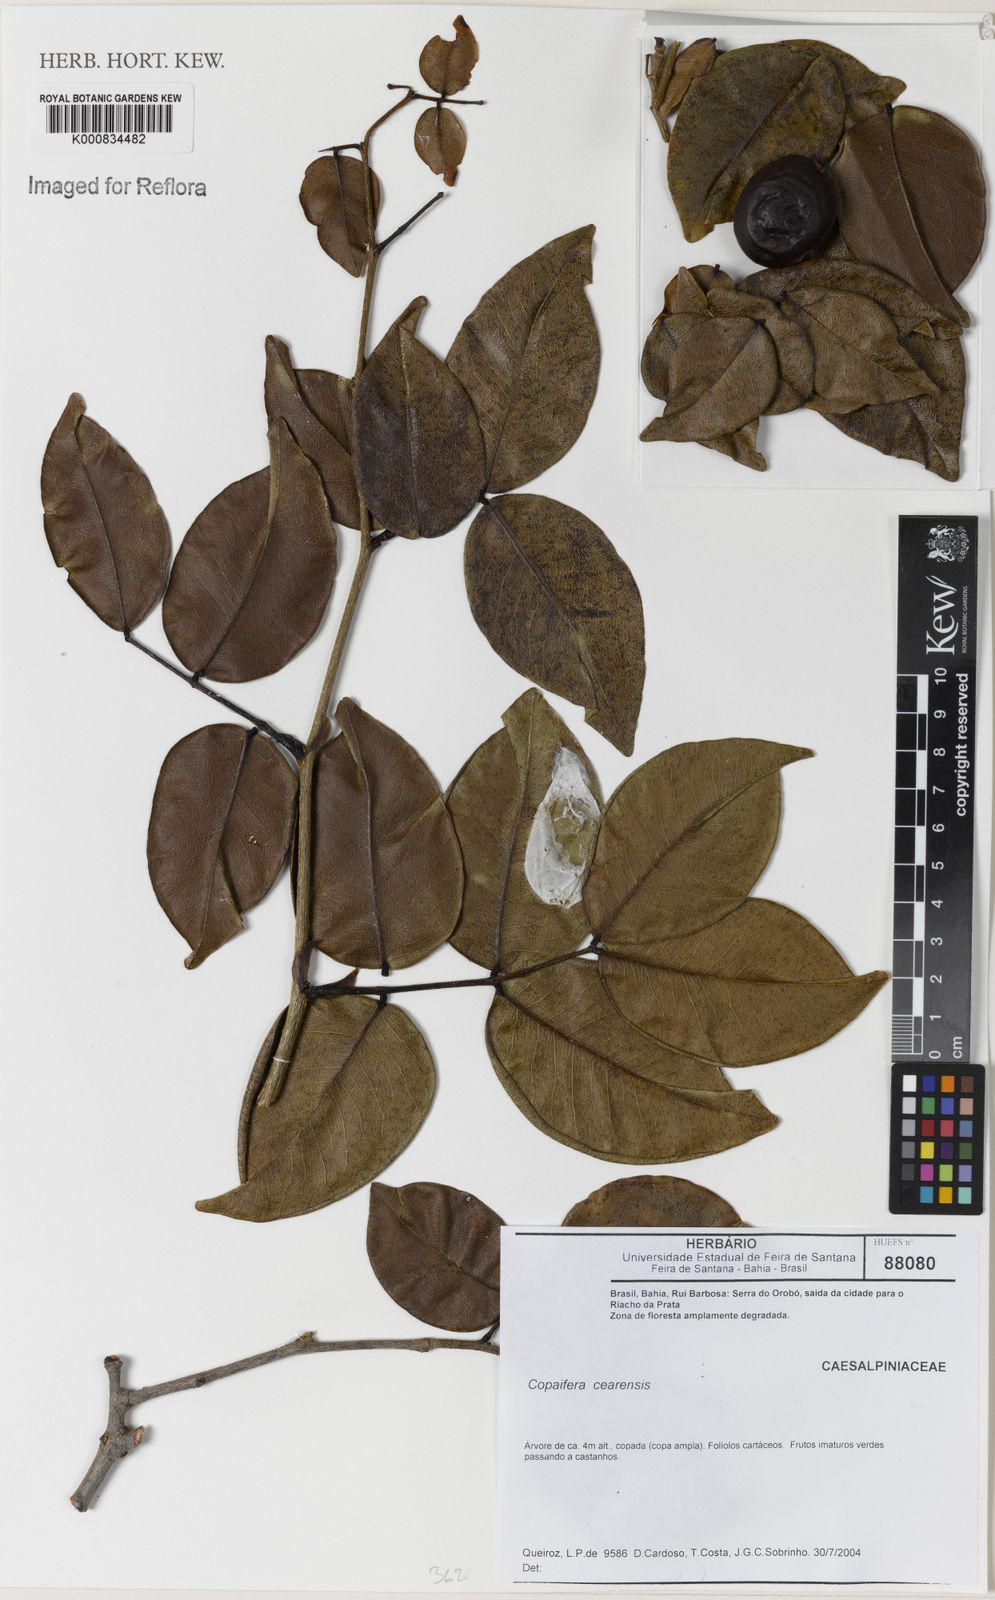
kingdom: Plantae
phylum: Tracheophyta
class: Magnoliopsida
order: Fabales
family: Fabaceae
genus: Copaifera
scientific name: Copaifera duckei
